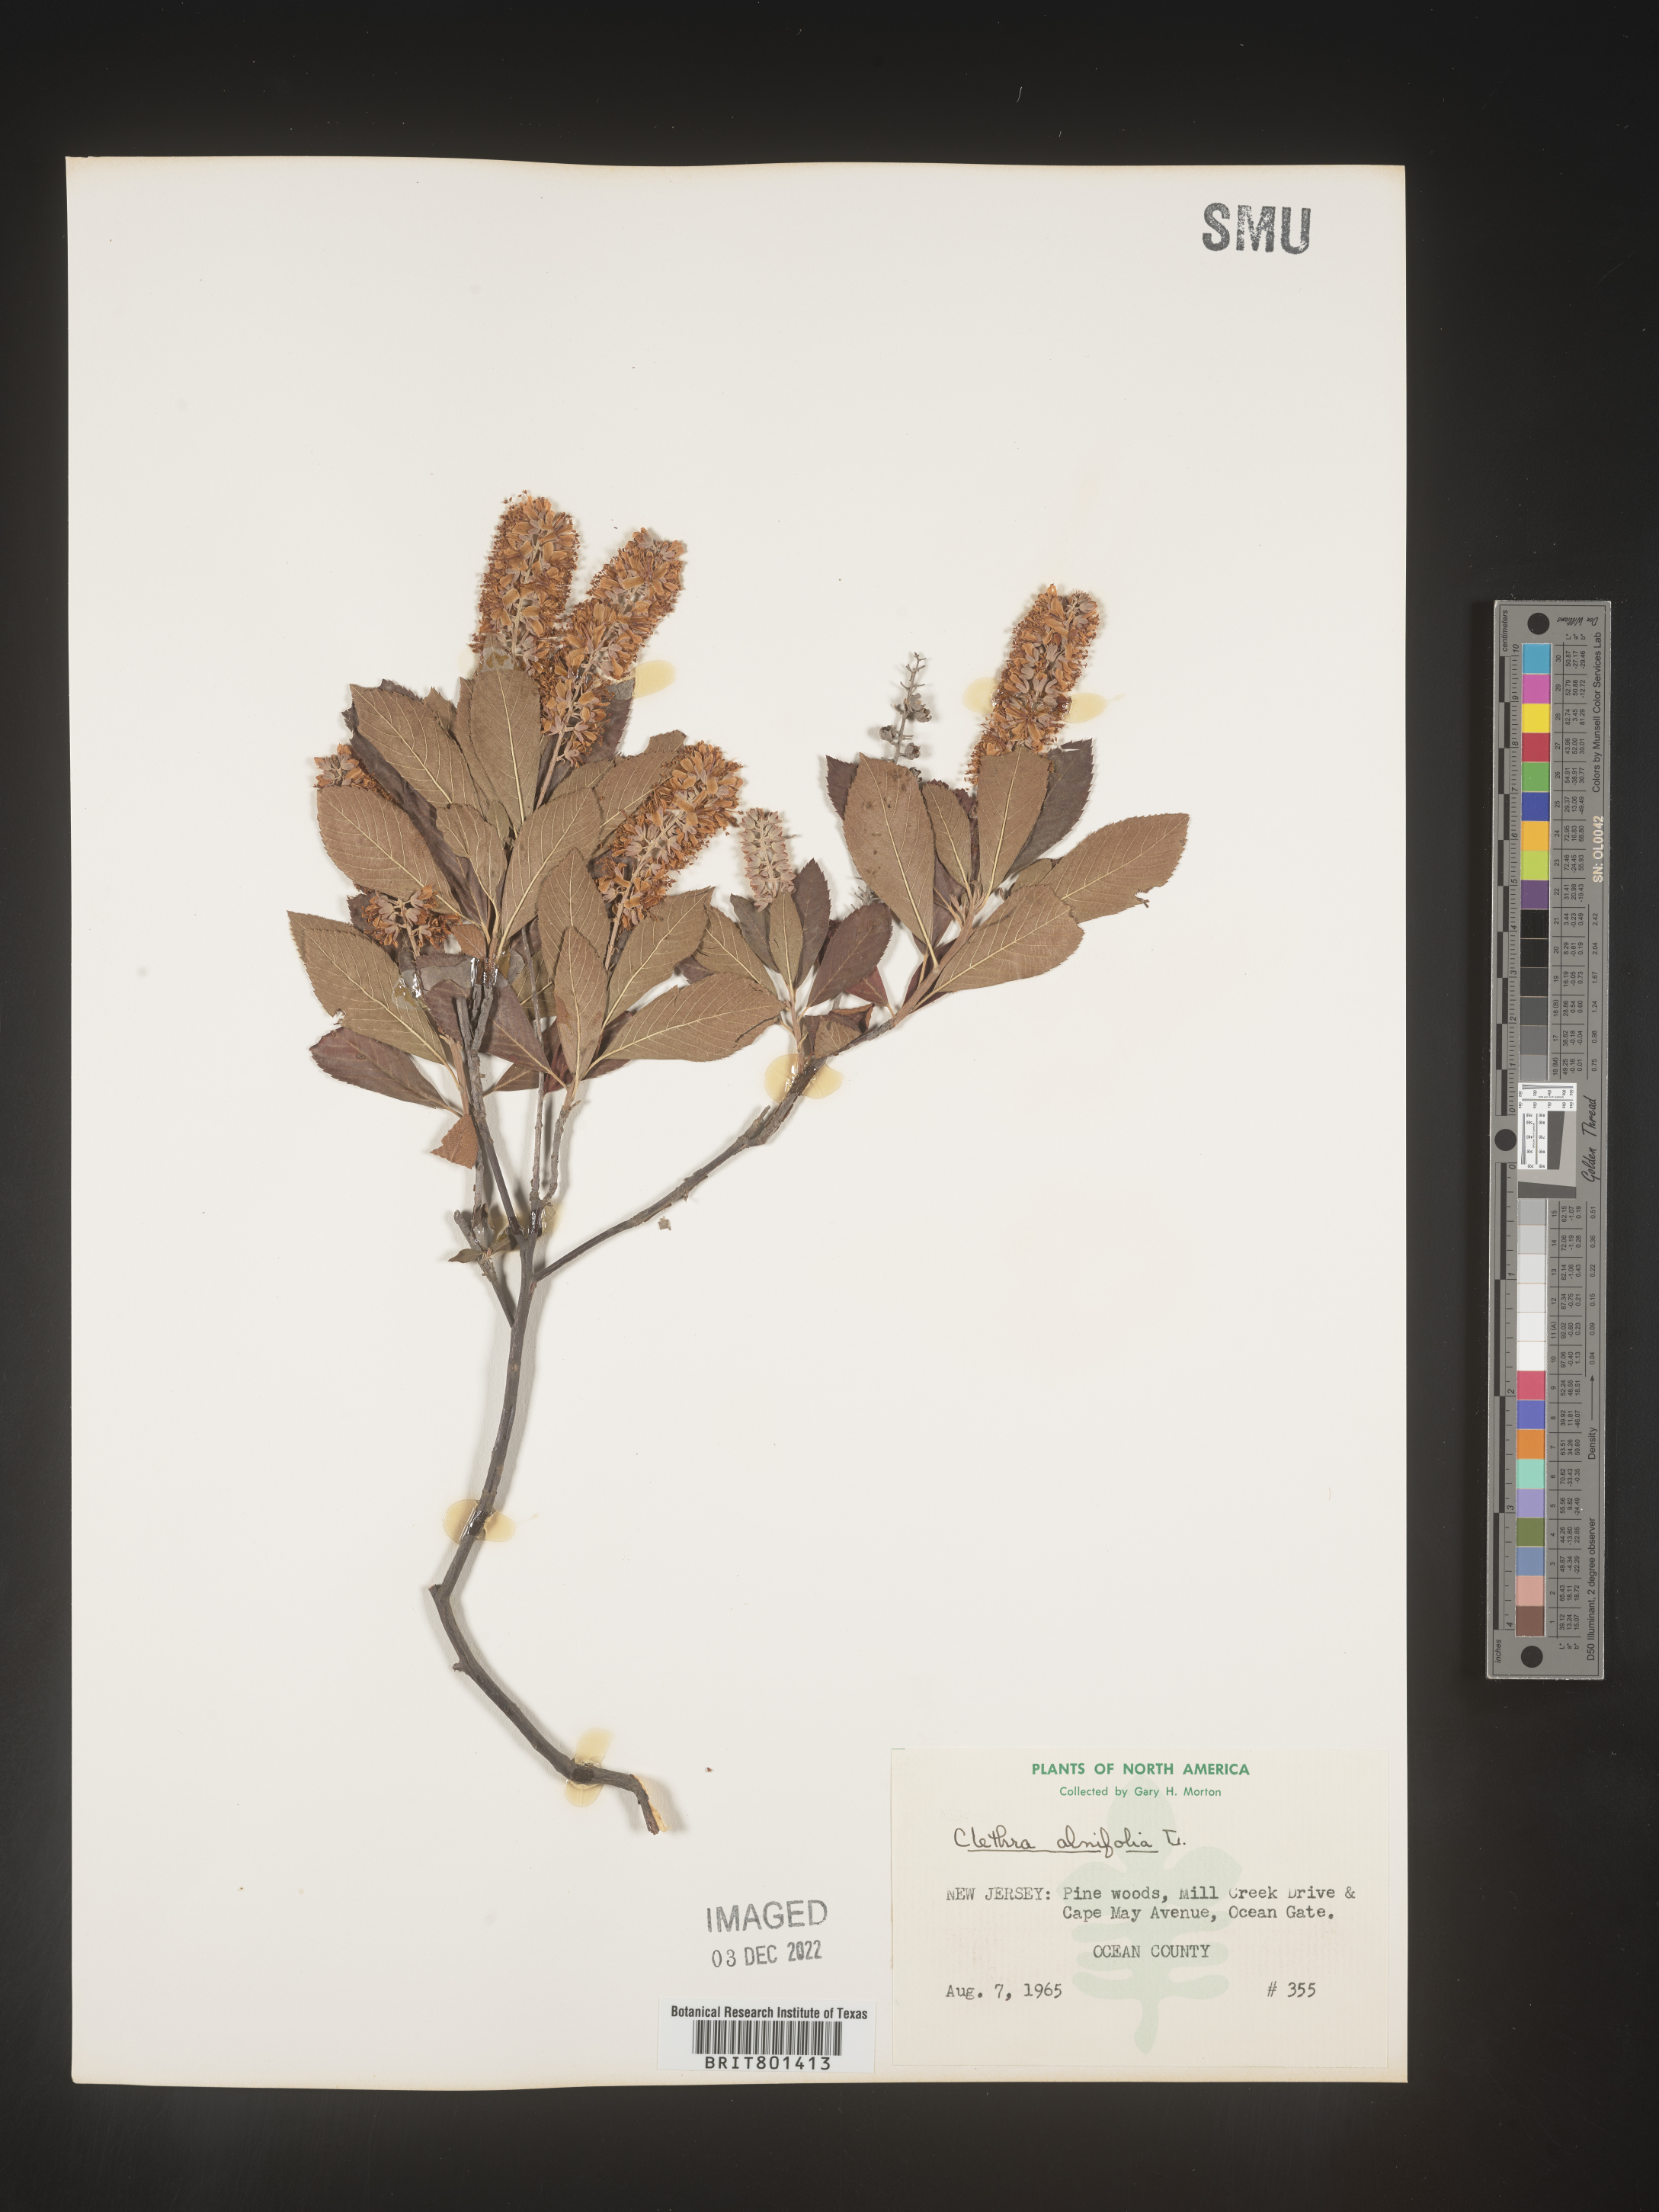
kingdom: Plantae
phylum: Tracheophyta
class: Magnoliopsida
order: Ericales
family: Clethraceae
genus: Clethra
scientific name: Clethra alnifolia
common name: Sweet pepperbush
